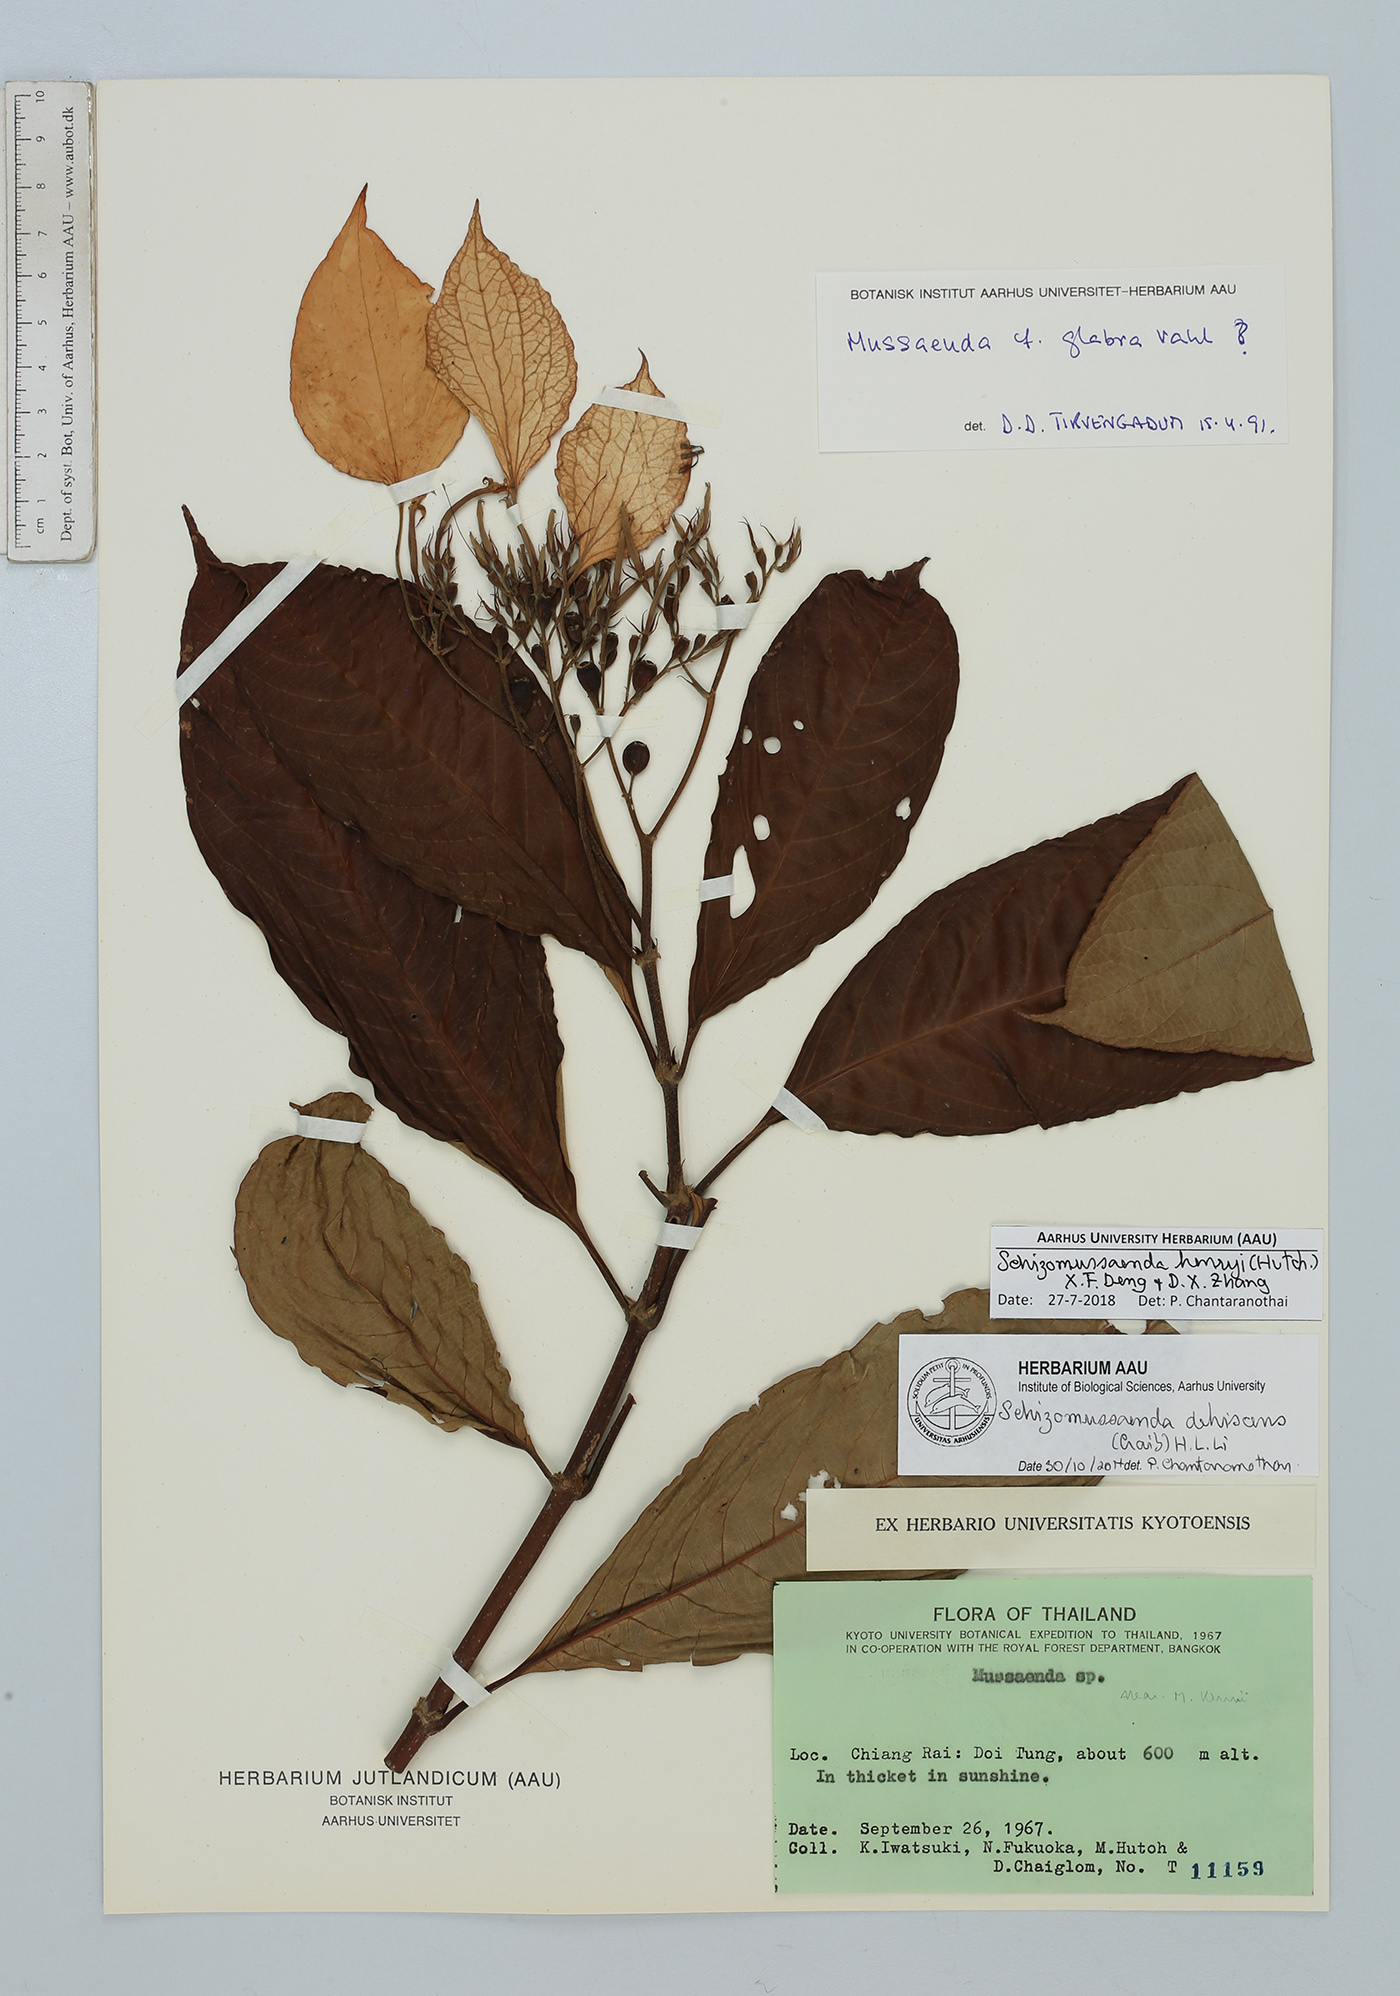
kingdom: Plantae
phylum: Tracheophyta
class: Magnoliopsida
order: Gentianales
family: Rubiaceae
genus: Schizomussaenda
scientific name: Schizomussaenda henryi
